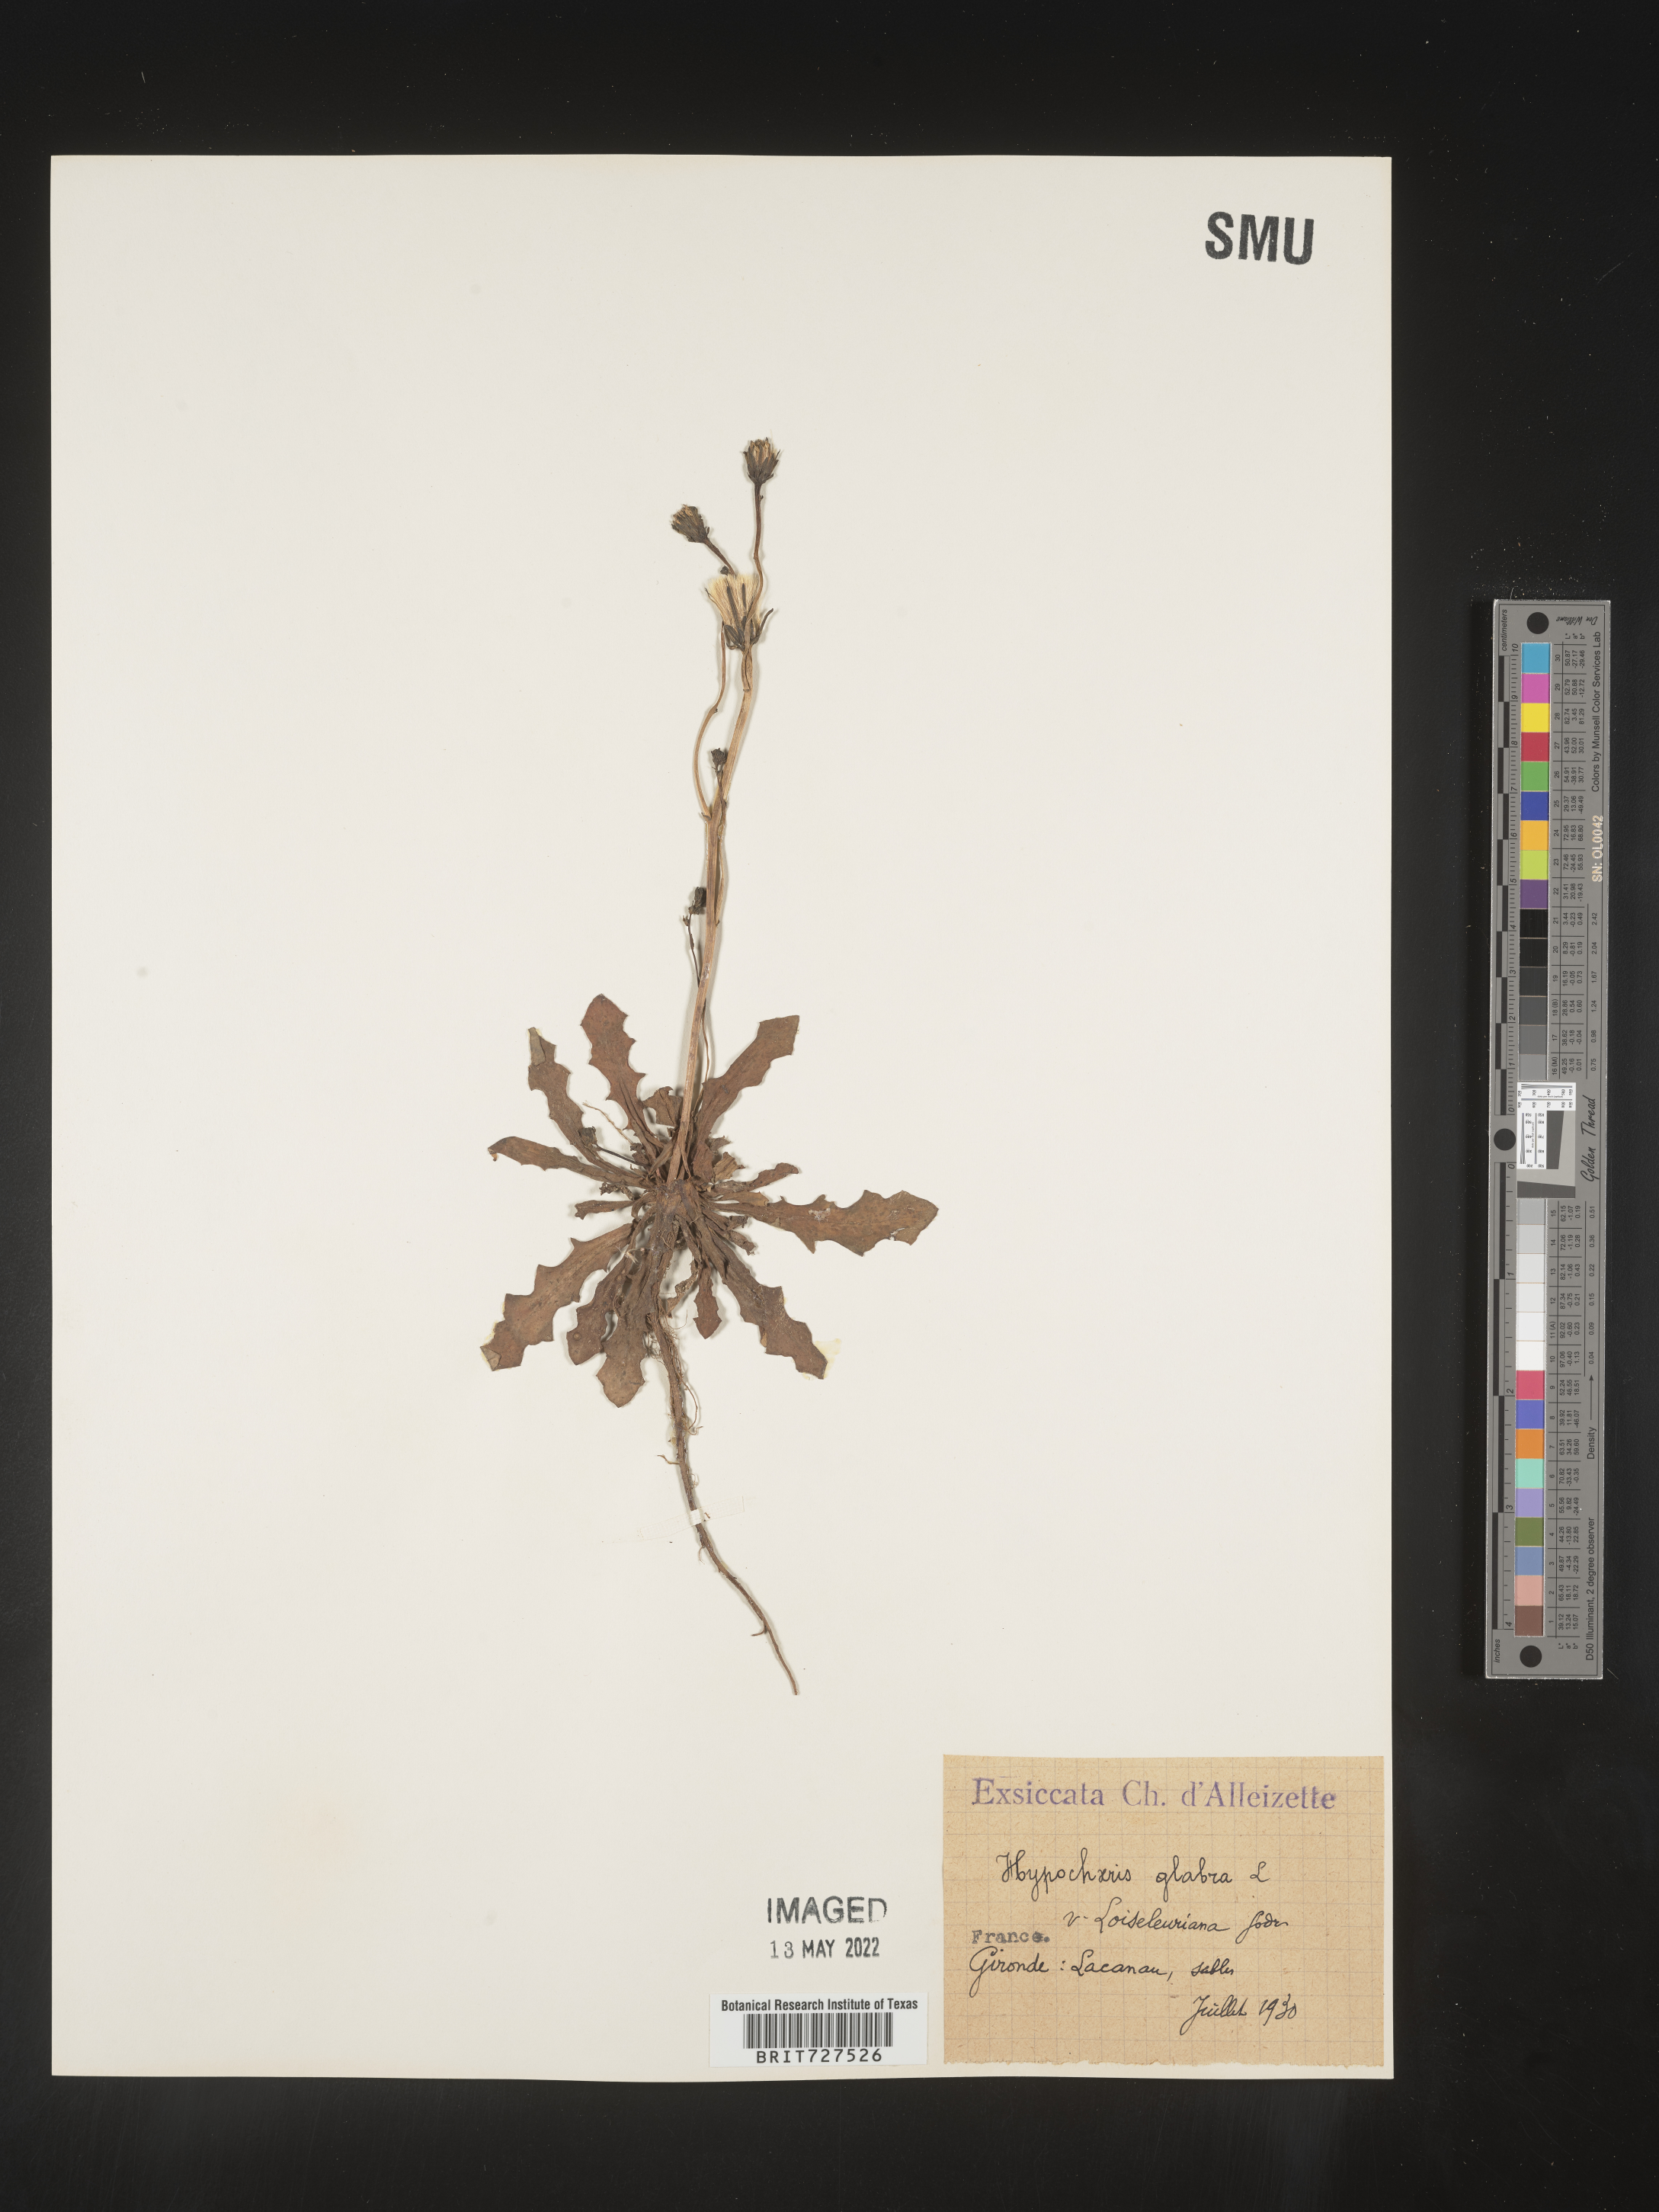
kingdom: Plantae
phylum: Tracheophyta
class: Magnoliopsida
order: Asterales
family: Asteraceae
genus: Hypochaeris
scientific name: Hypochaeris
